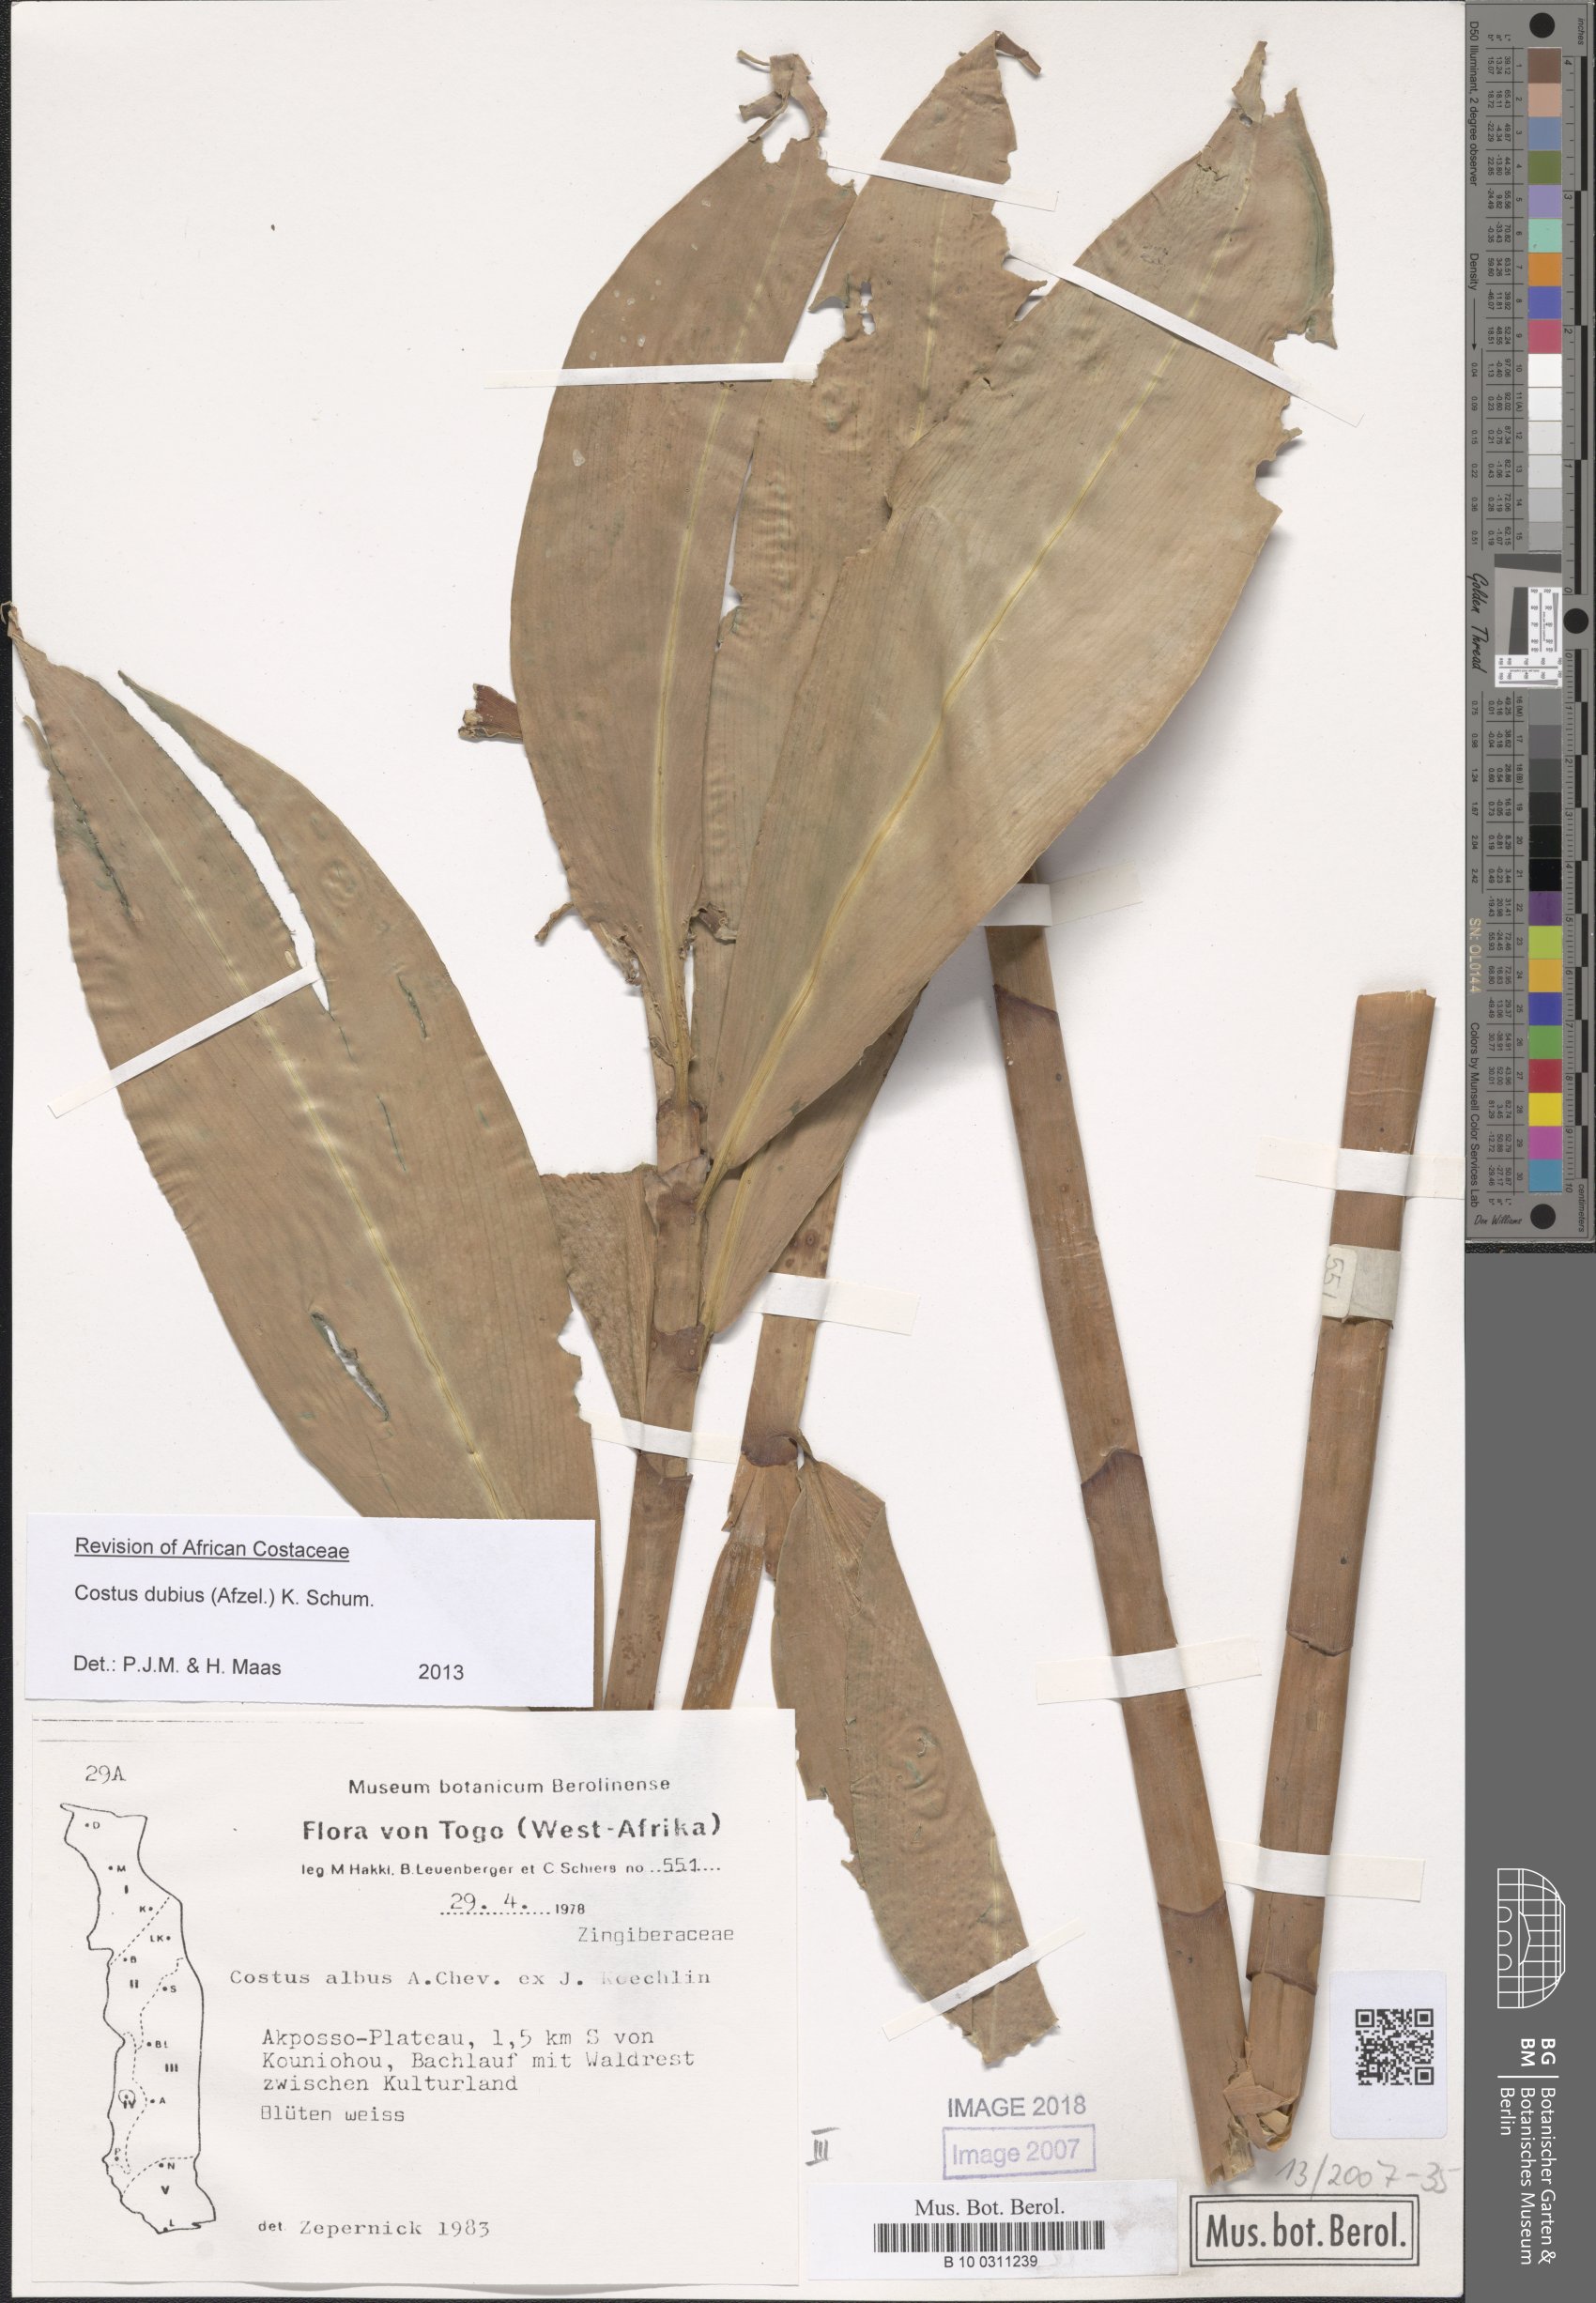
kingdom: Plantae
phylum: Tracheophyta
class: Liliopsida
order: Zingiberales
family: Costaceae
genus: Costus
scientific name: Costus dubius
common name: Costus
